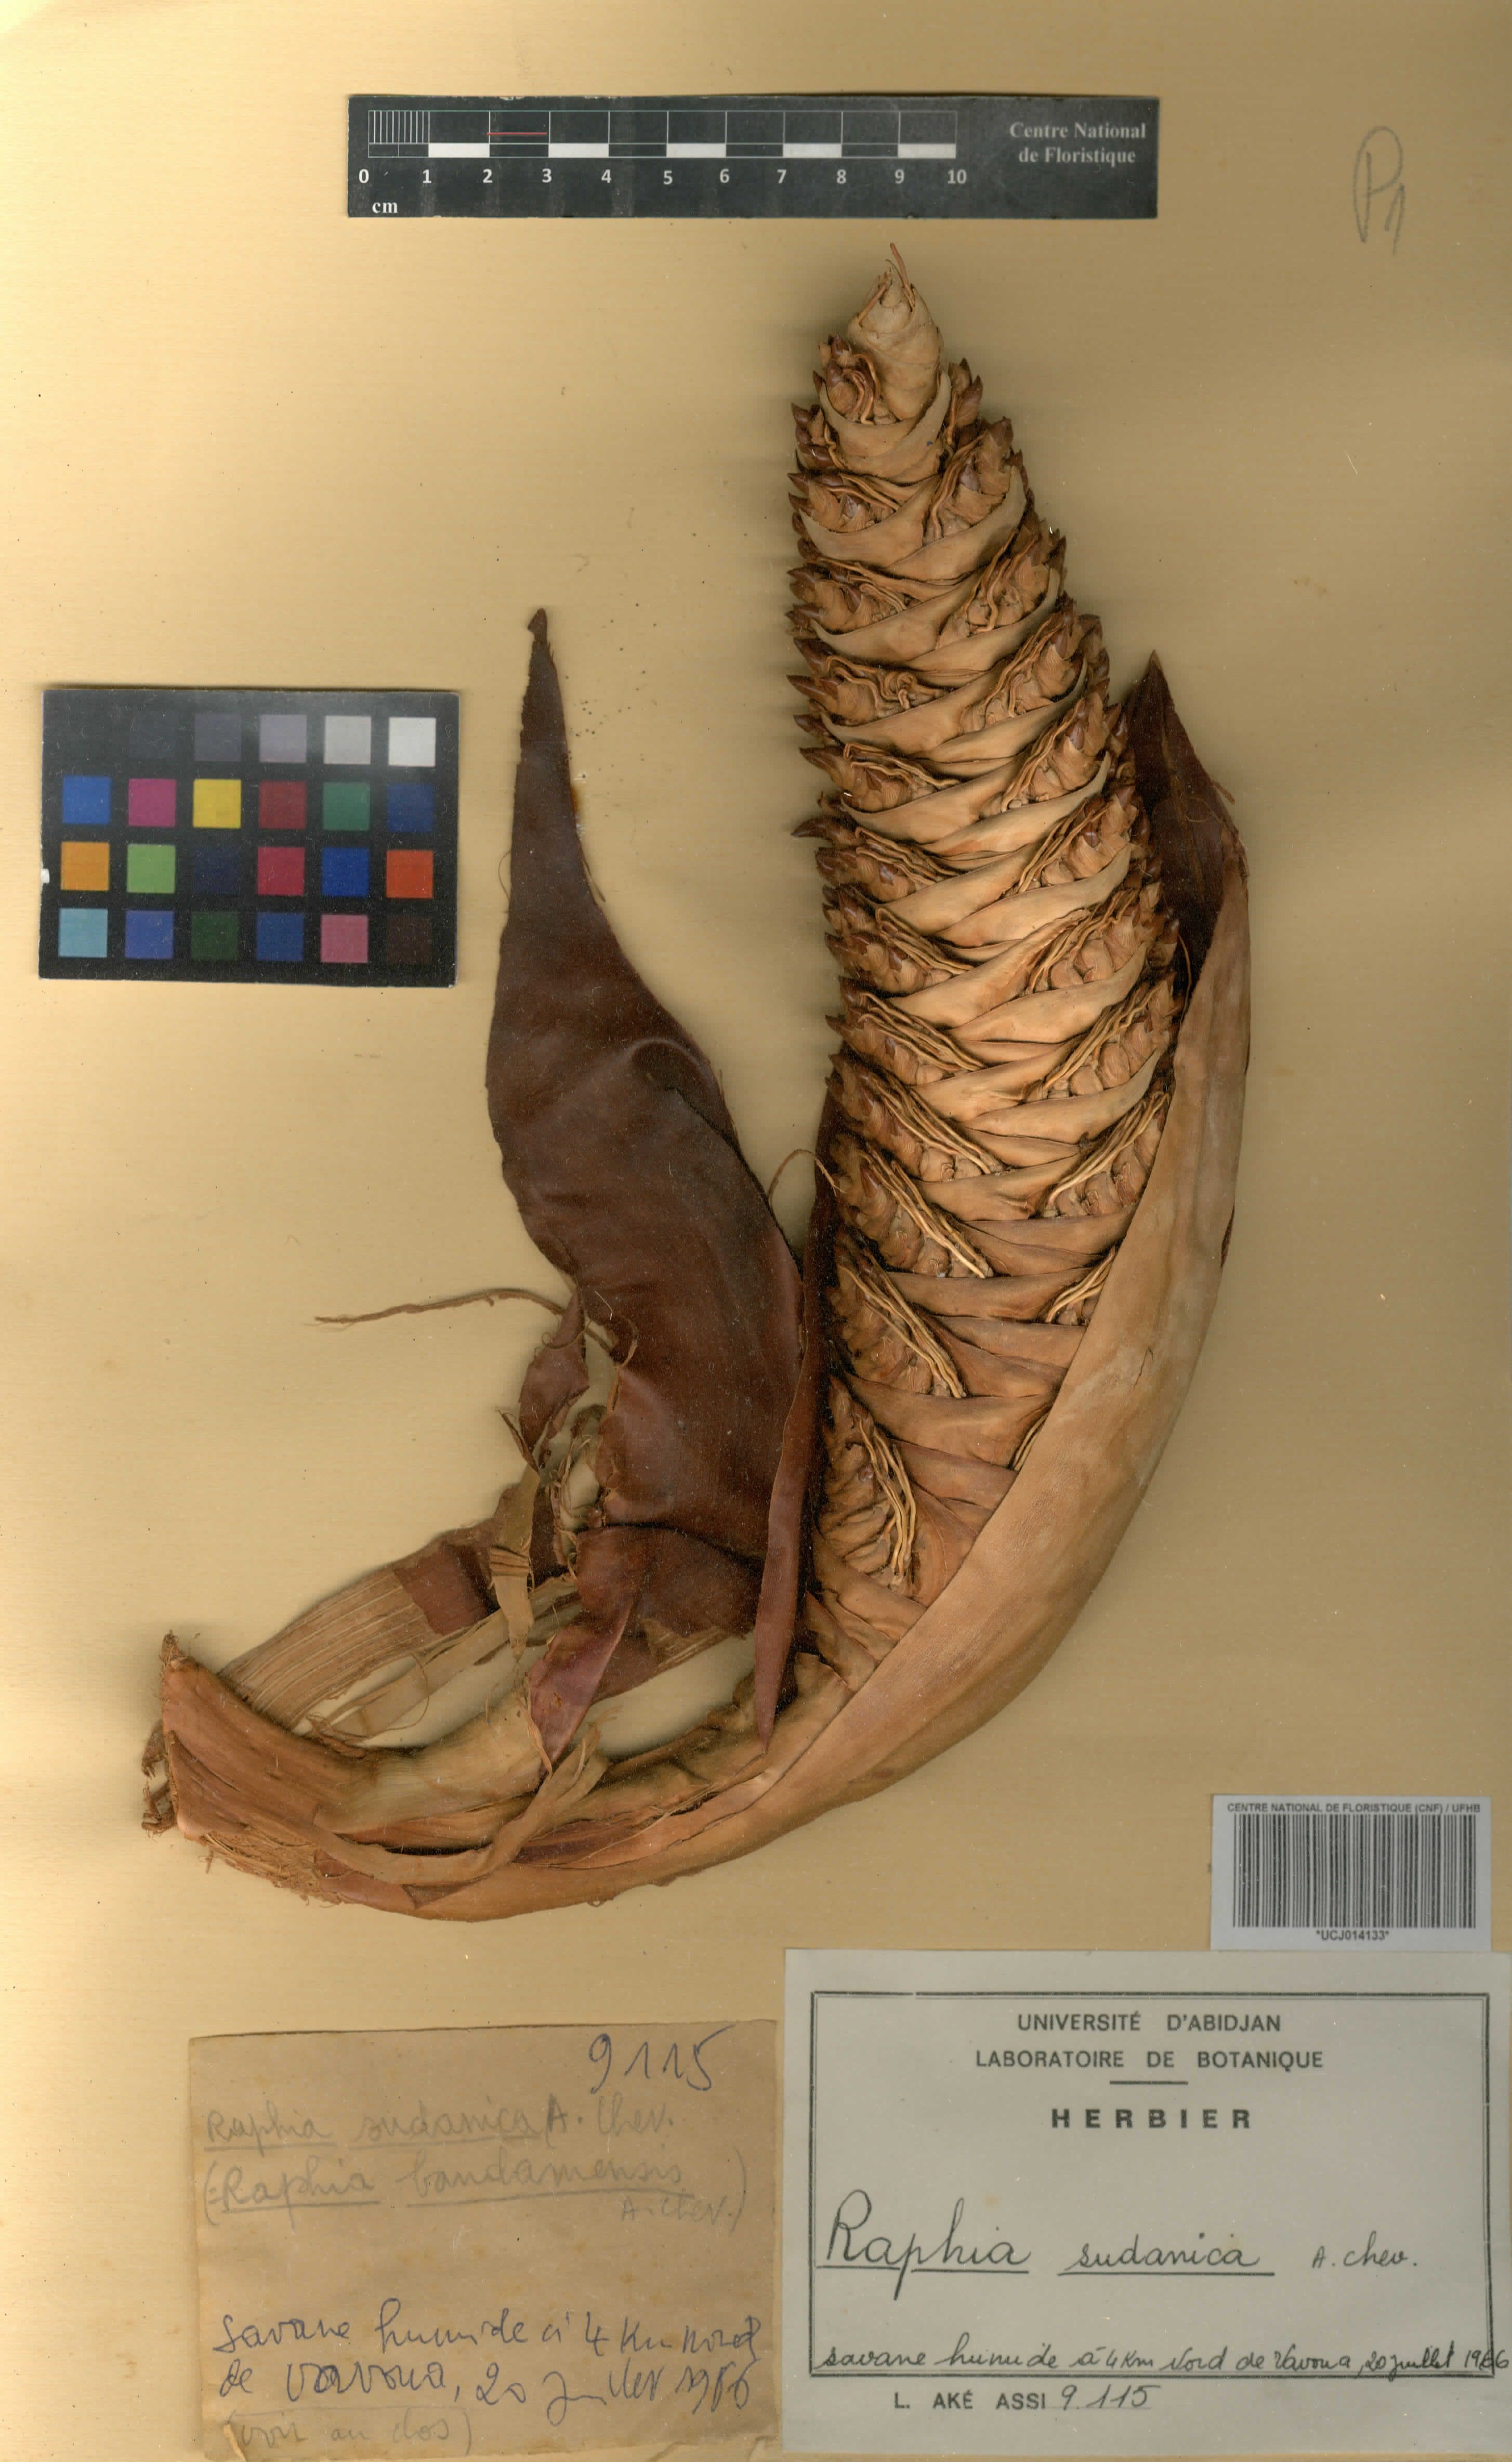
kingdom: Plantae
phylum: Tracheophyta
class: Liliopsida
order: Arecales
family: Arecaceae
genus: Raphia
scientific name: Raphia sudanica
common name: Northern raphia
